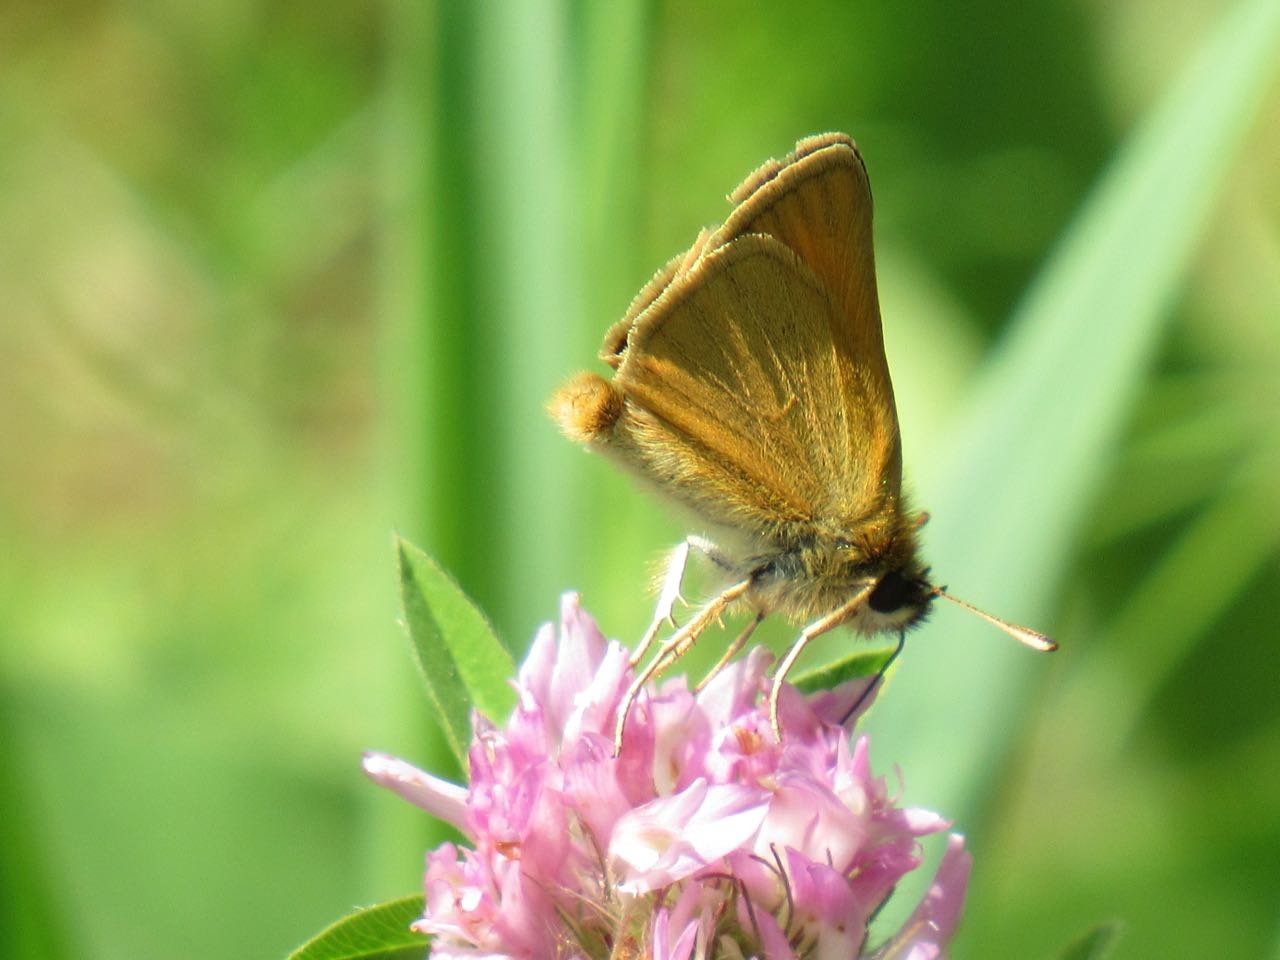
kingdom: Animalia
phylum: Arthropoda
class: Insecta
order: Lepidoptera
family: Hesperiidae
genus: Thymelicus
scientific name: Thymelicus lineola
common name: European Skipper
